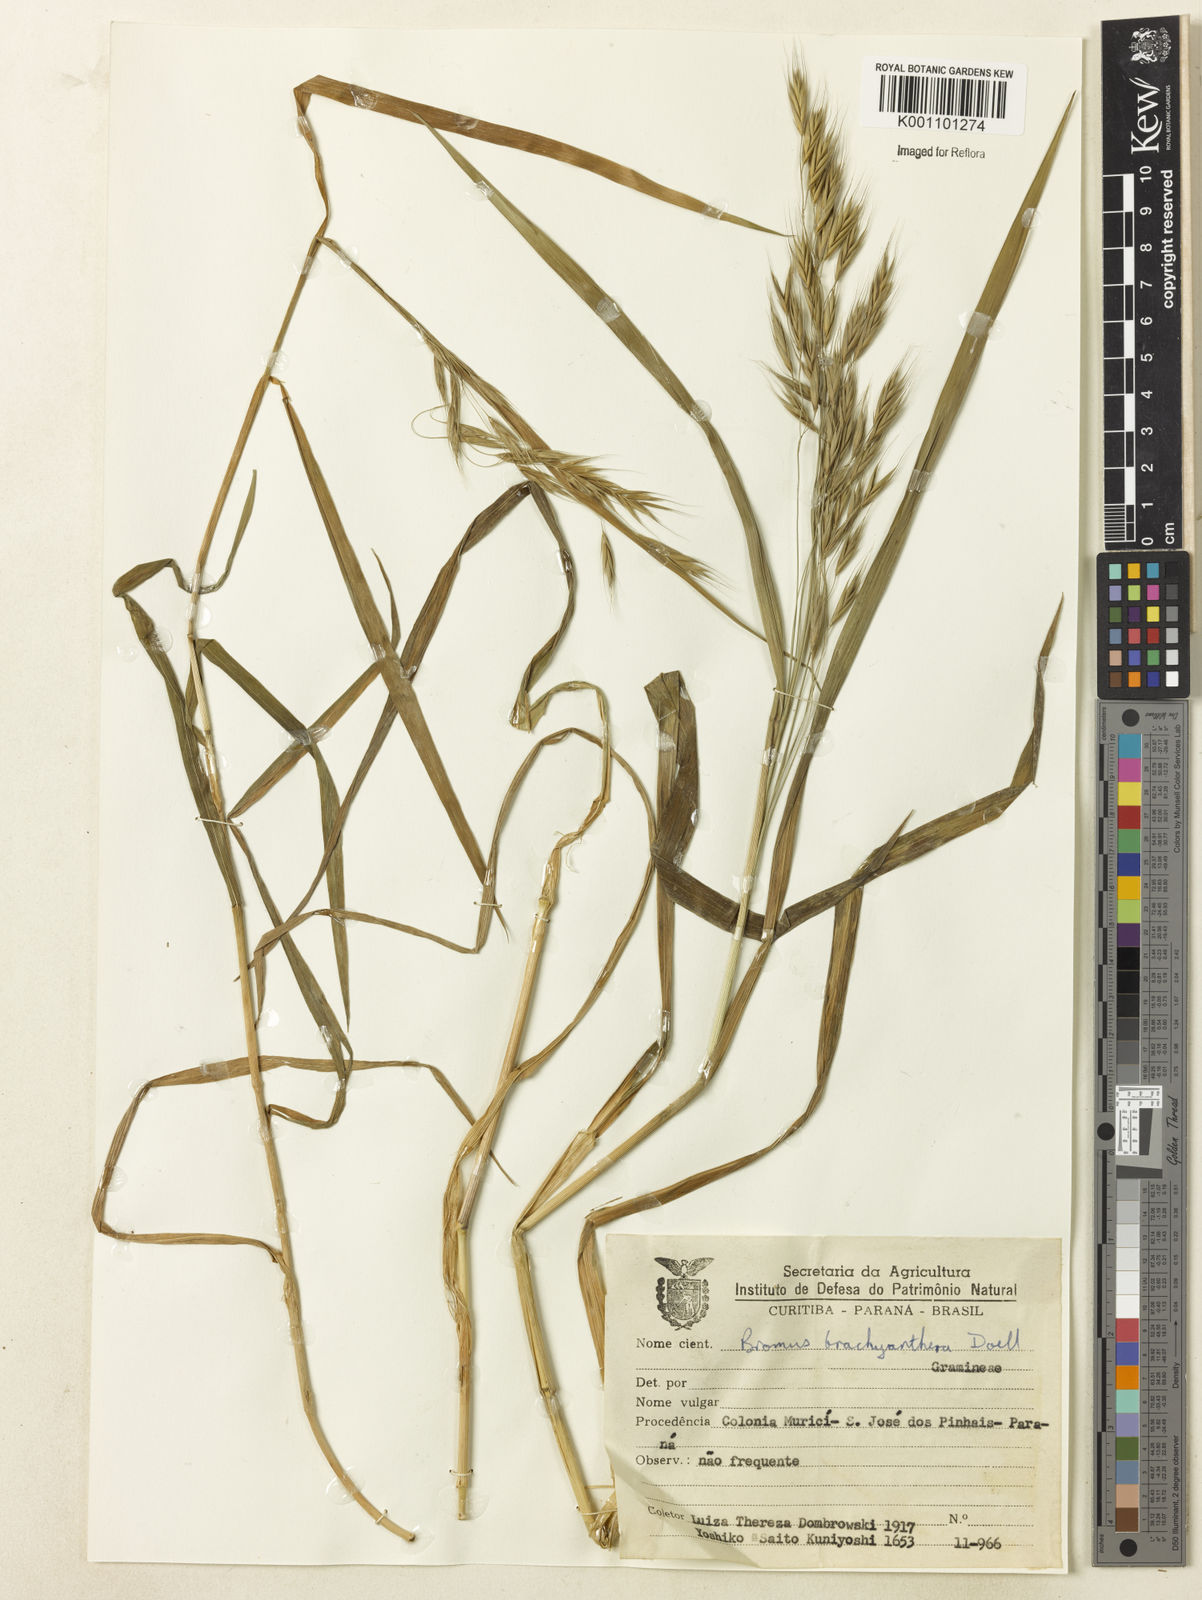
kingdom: Plantae
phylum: Tracheophyta
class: Liliopsida
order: Poales
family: Poaceae
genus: Bromus
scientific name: Bromus
